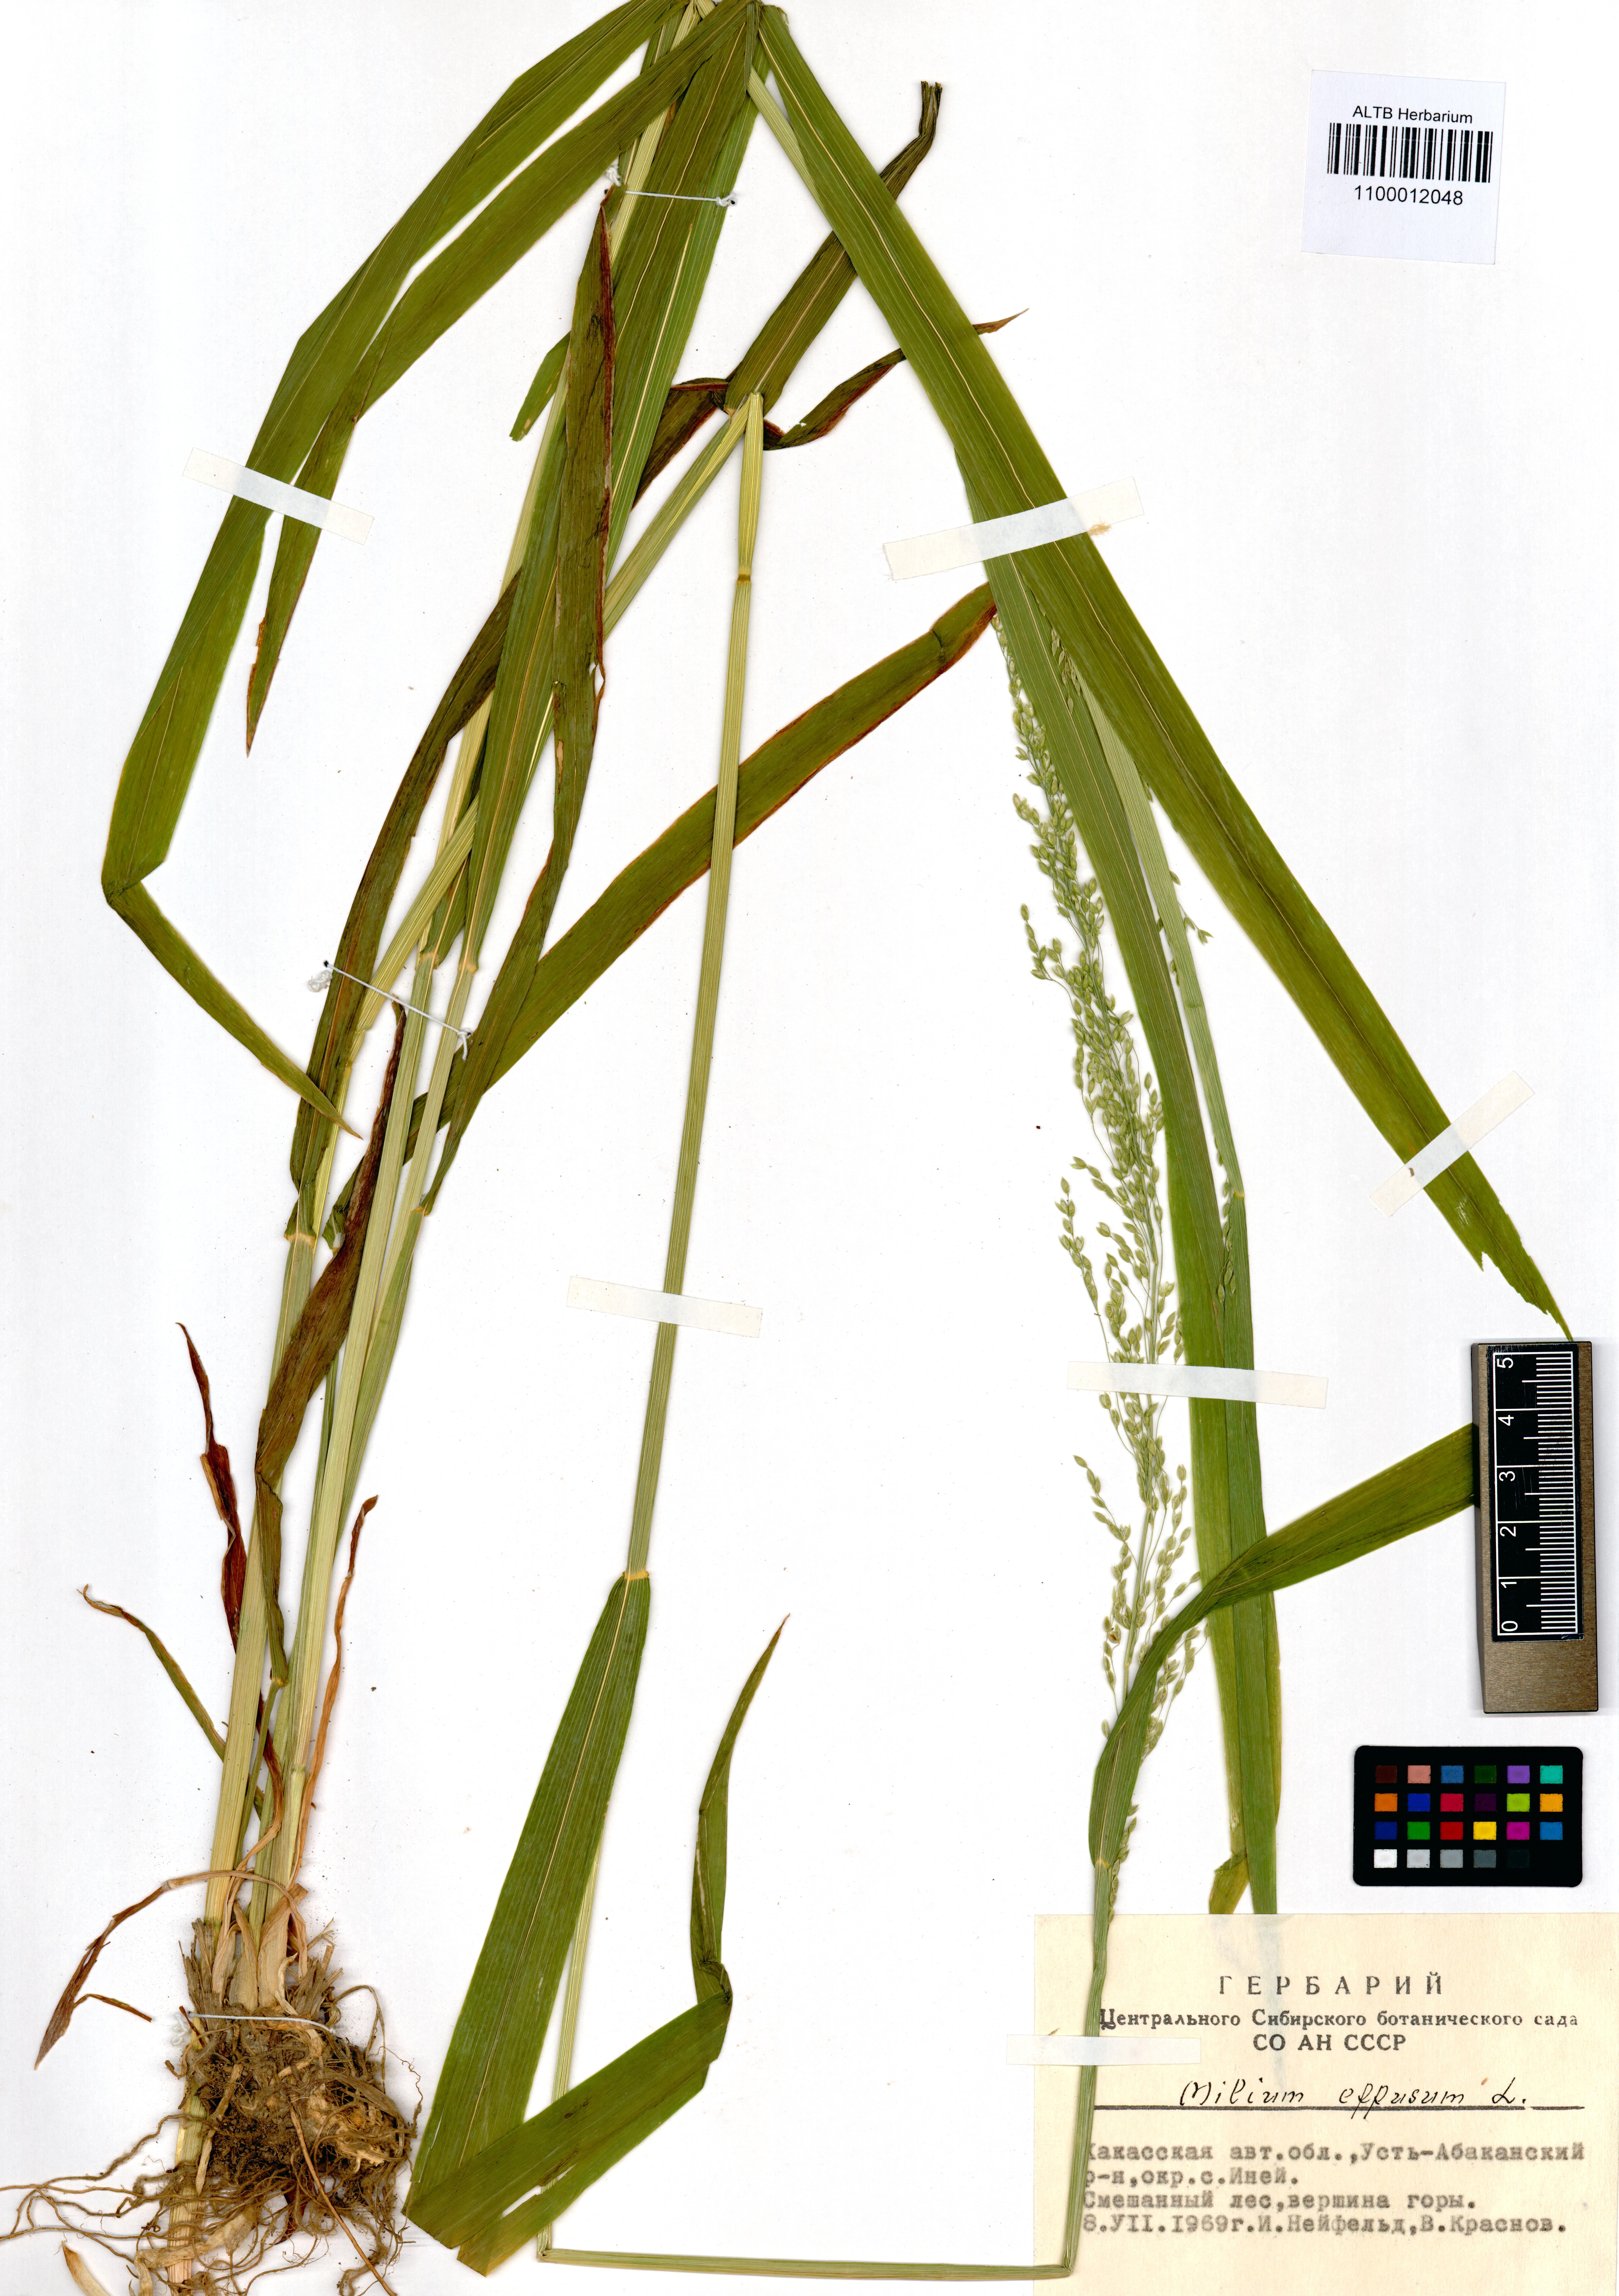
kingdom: Plantae
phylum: Tracheophyta
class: Liliopsida
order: Poales
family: Poaceae
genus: Milium
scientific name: Milium effusum
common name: Wood millet
